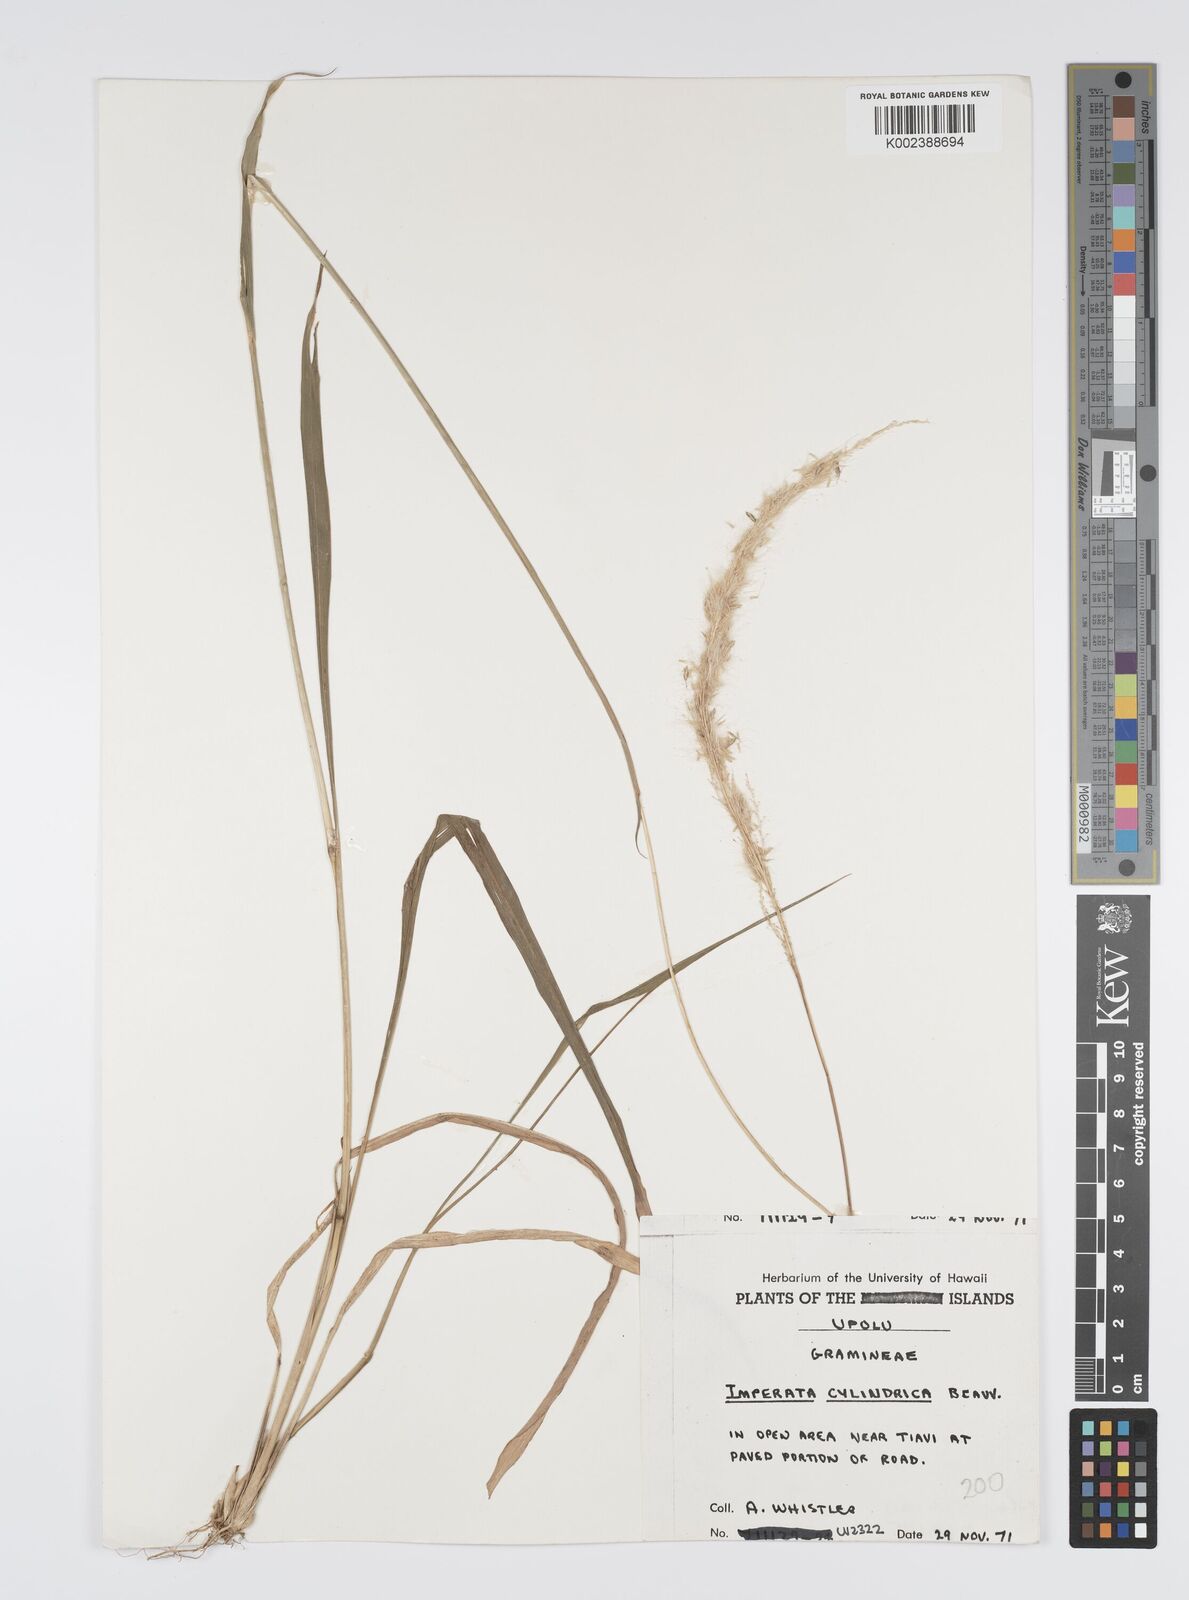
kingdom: Plantae
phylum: Tracheophyta
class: Liliopsida
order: Poales
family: Poaceae
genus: Imperata
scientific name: Imperata cylindrica
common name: Cogongrass
